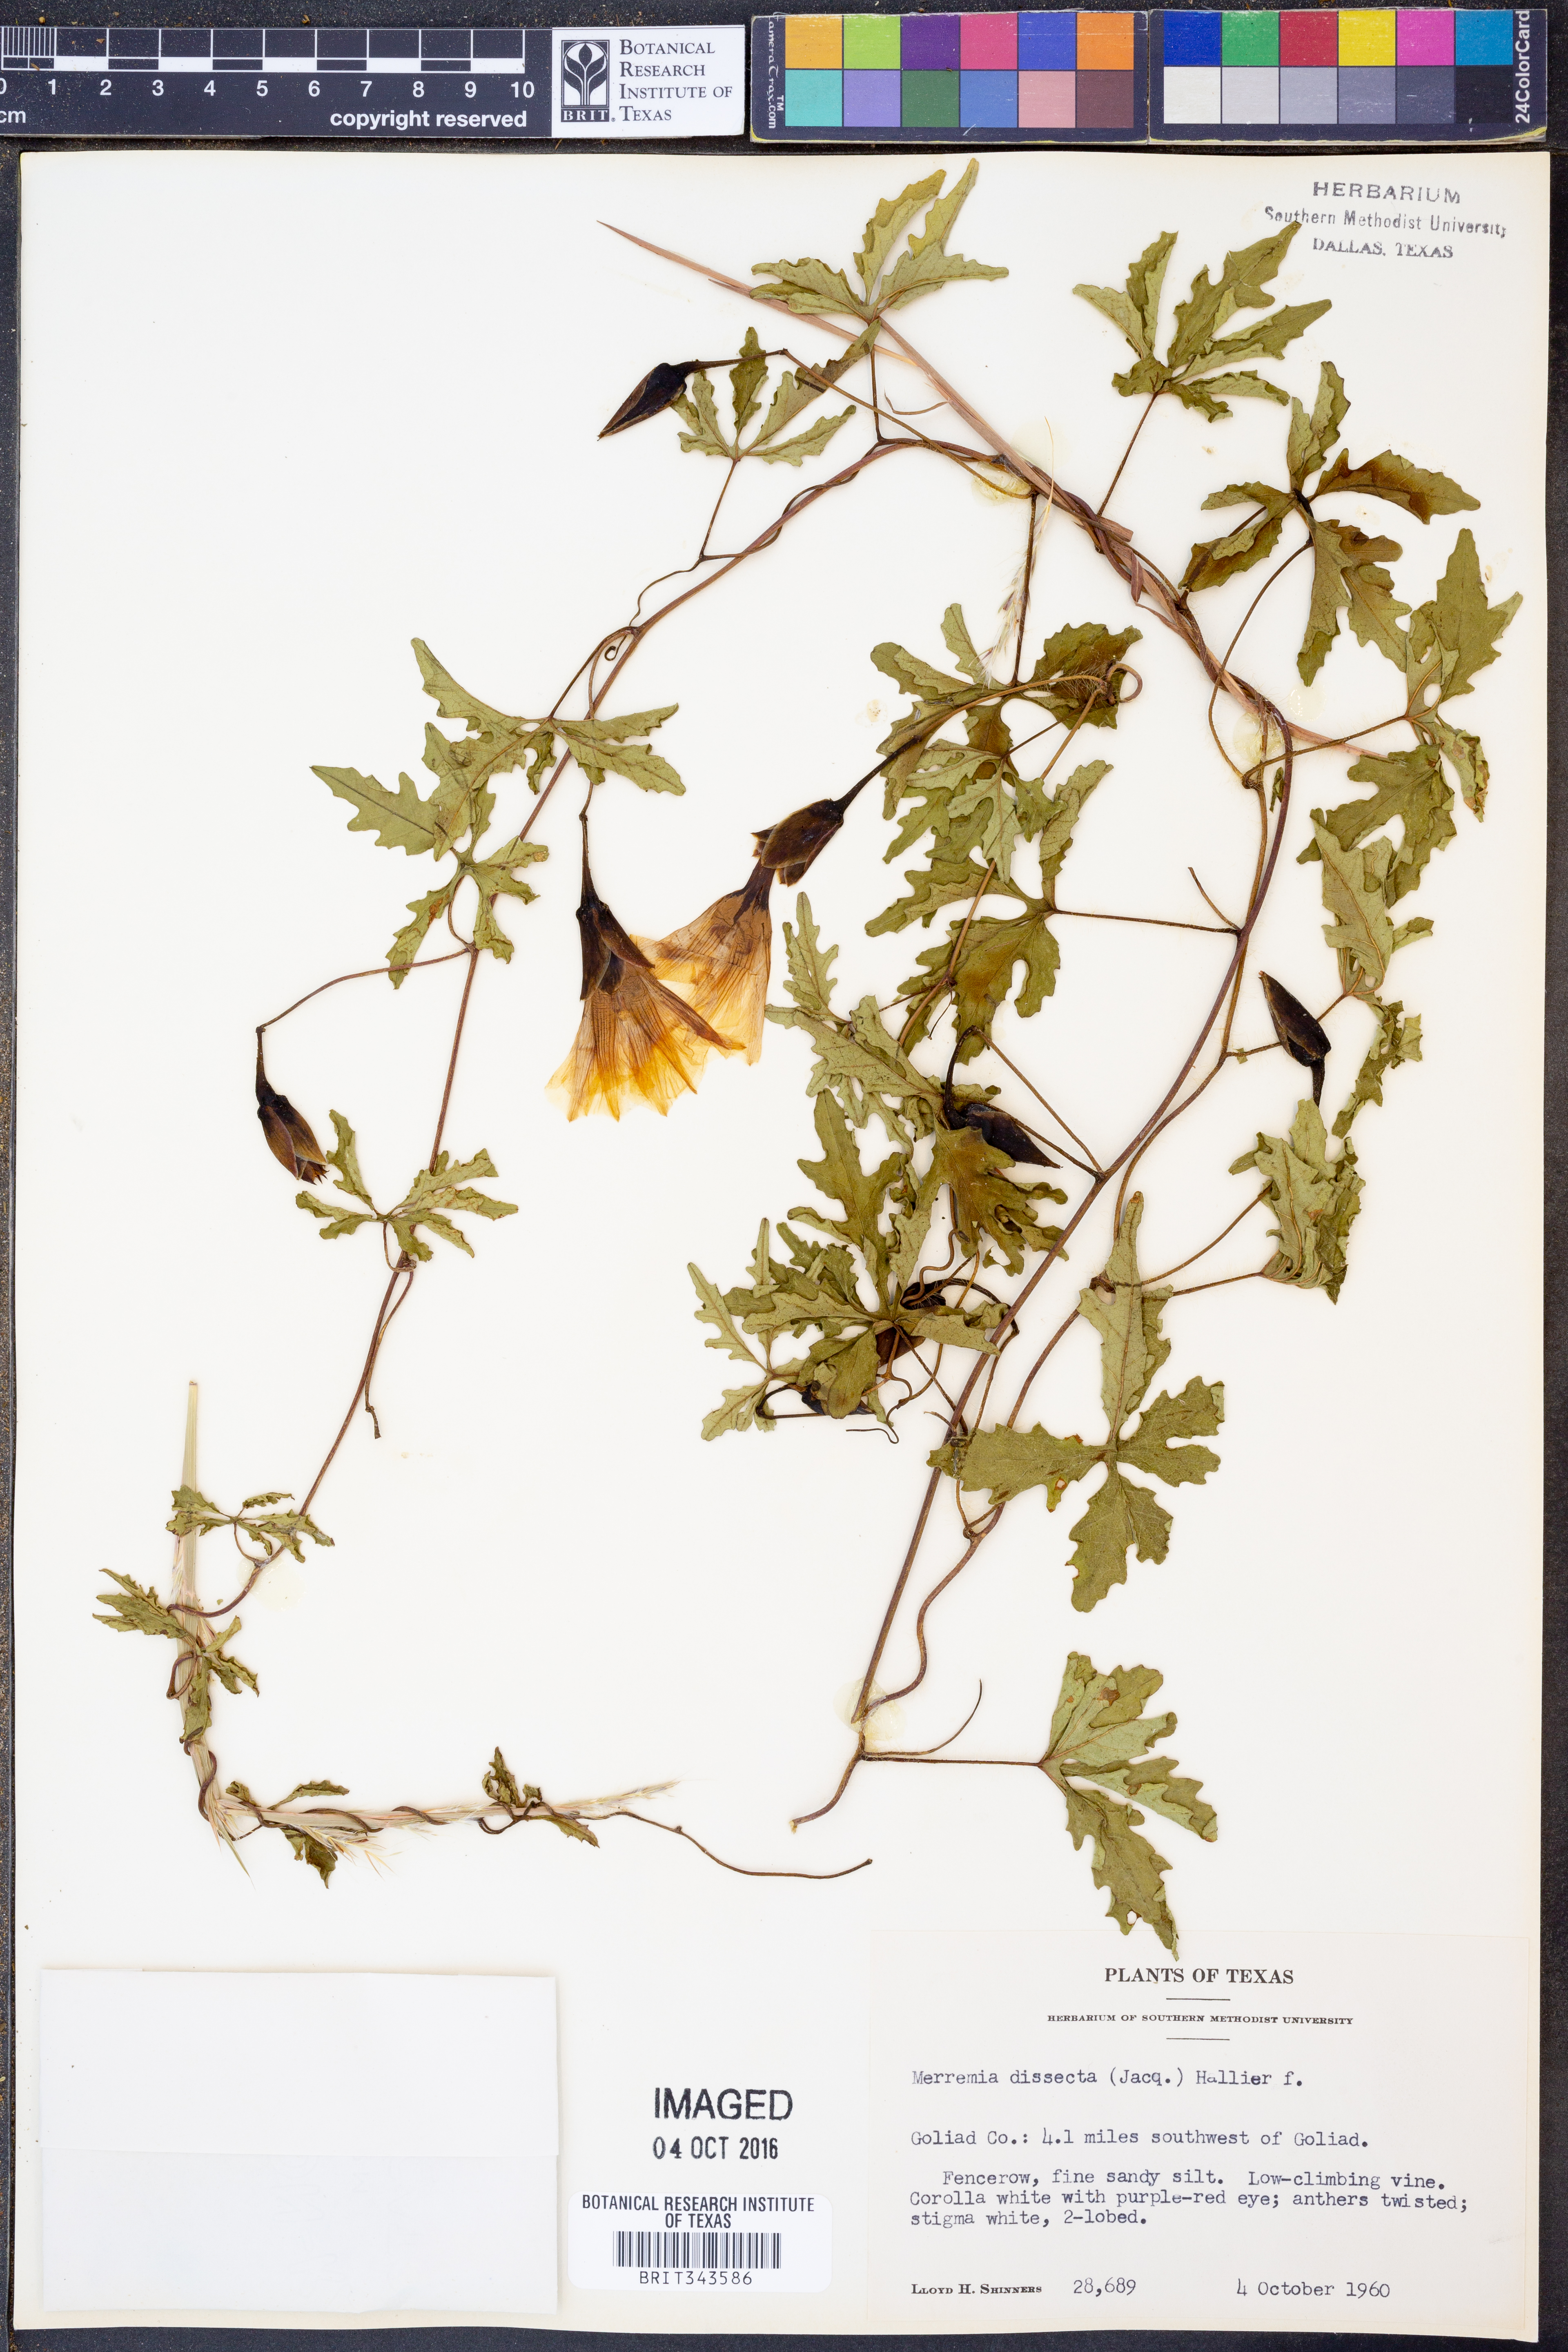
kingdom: Plantae
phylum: Tracheophyta
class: Magnoliopsida
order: Solanales
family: Convolvulaceae
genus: Distimake
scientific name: Distimake dissectus
